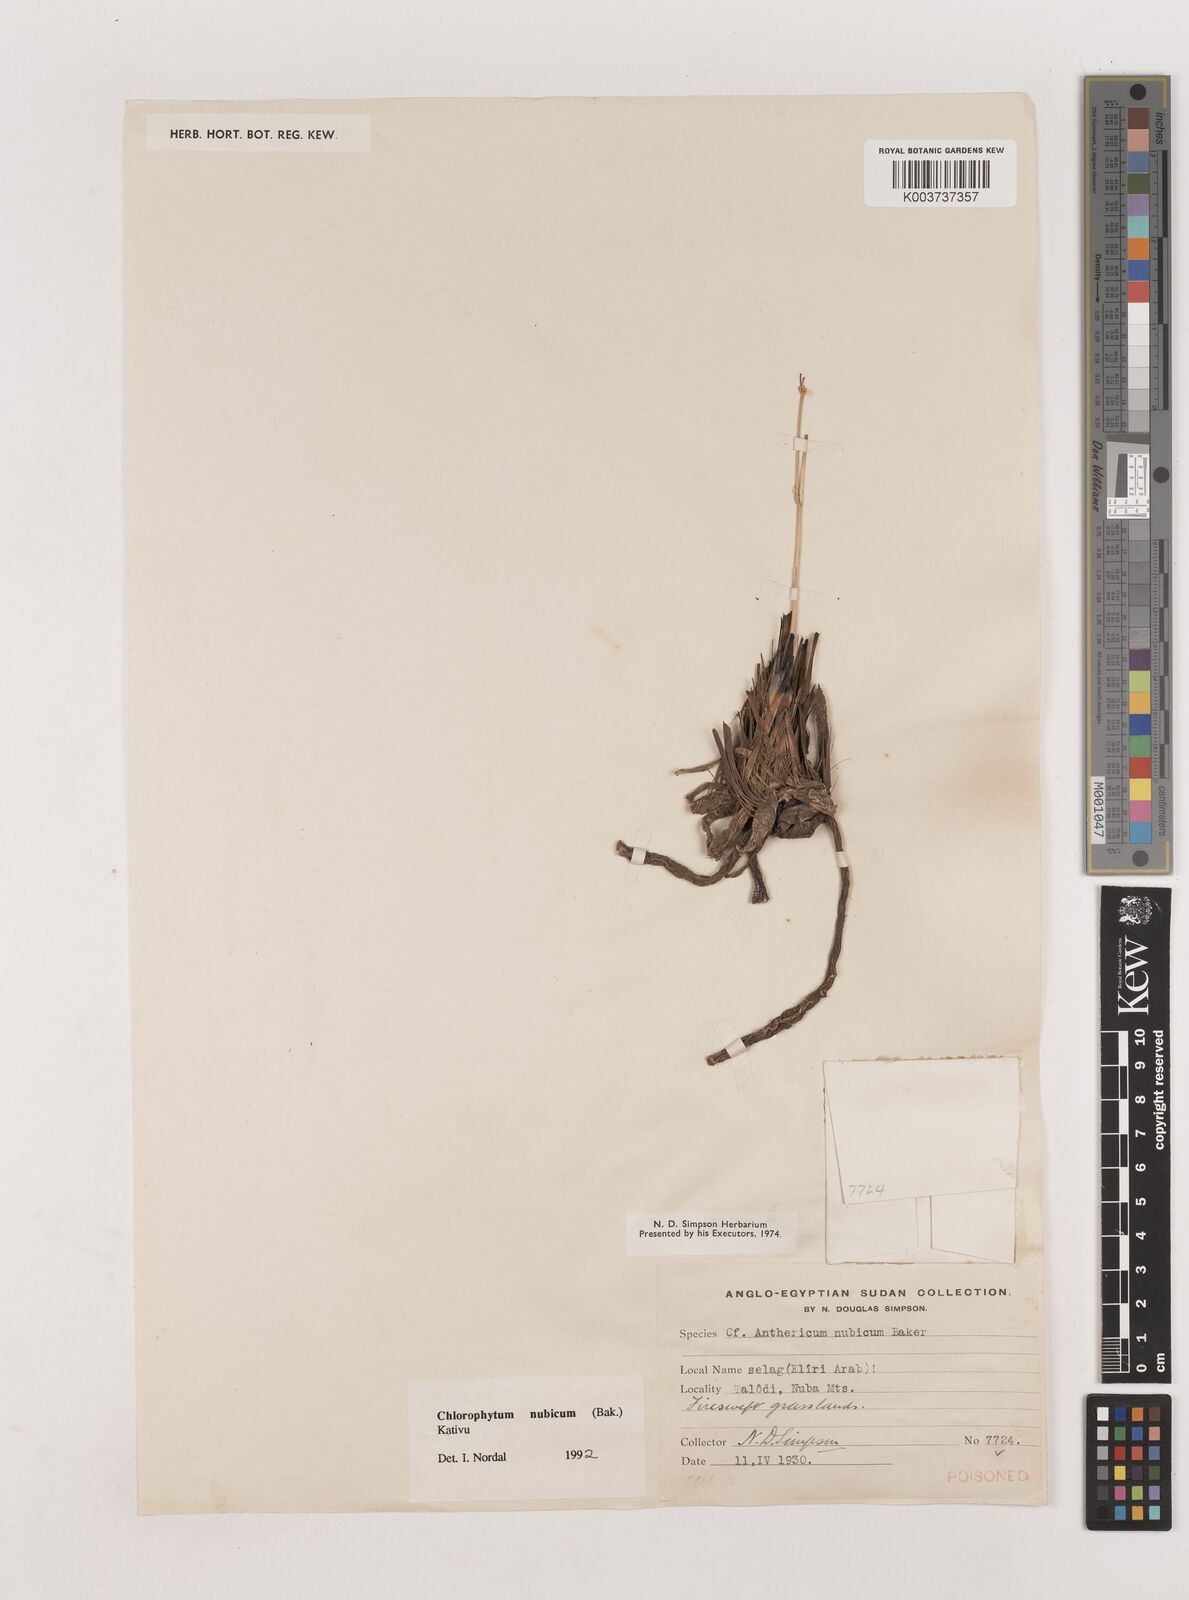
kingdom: Plantae
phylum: Tracheophyta
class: Liliopsida
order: Asparagales
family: Asparagaceae
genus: Chlorophytum
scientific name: Chlorophytum nubicum
